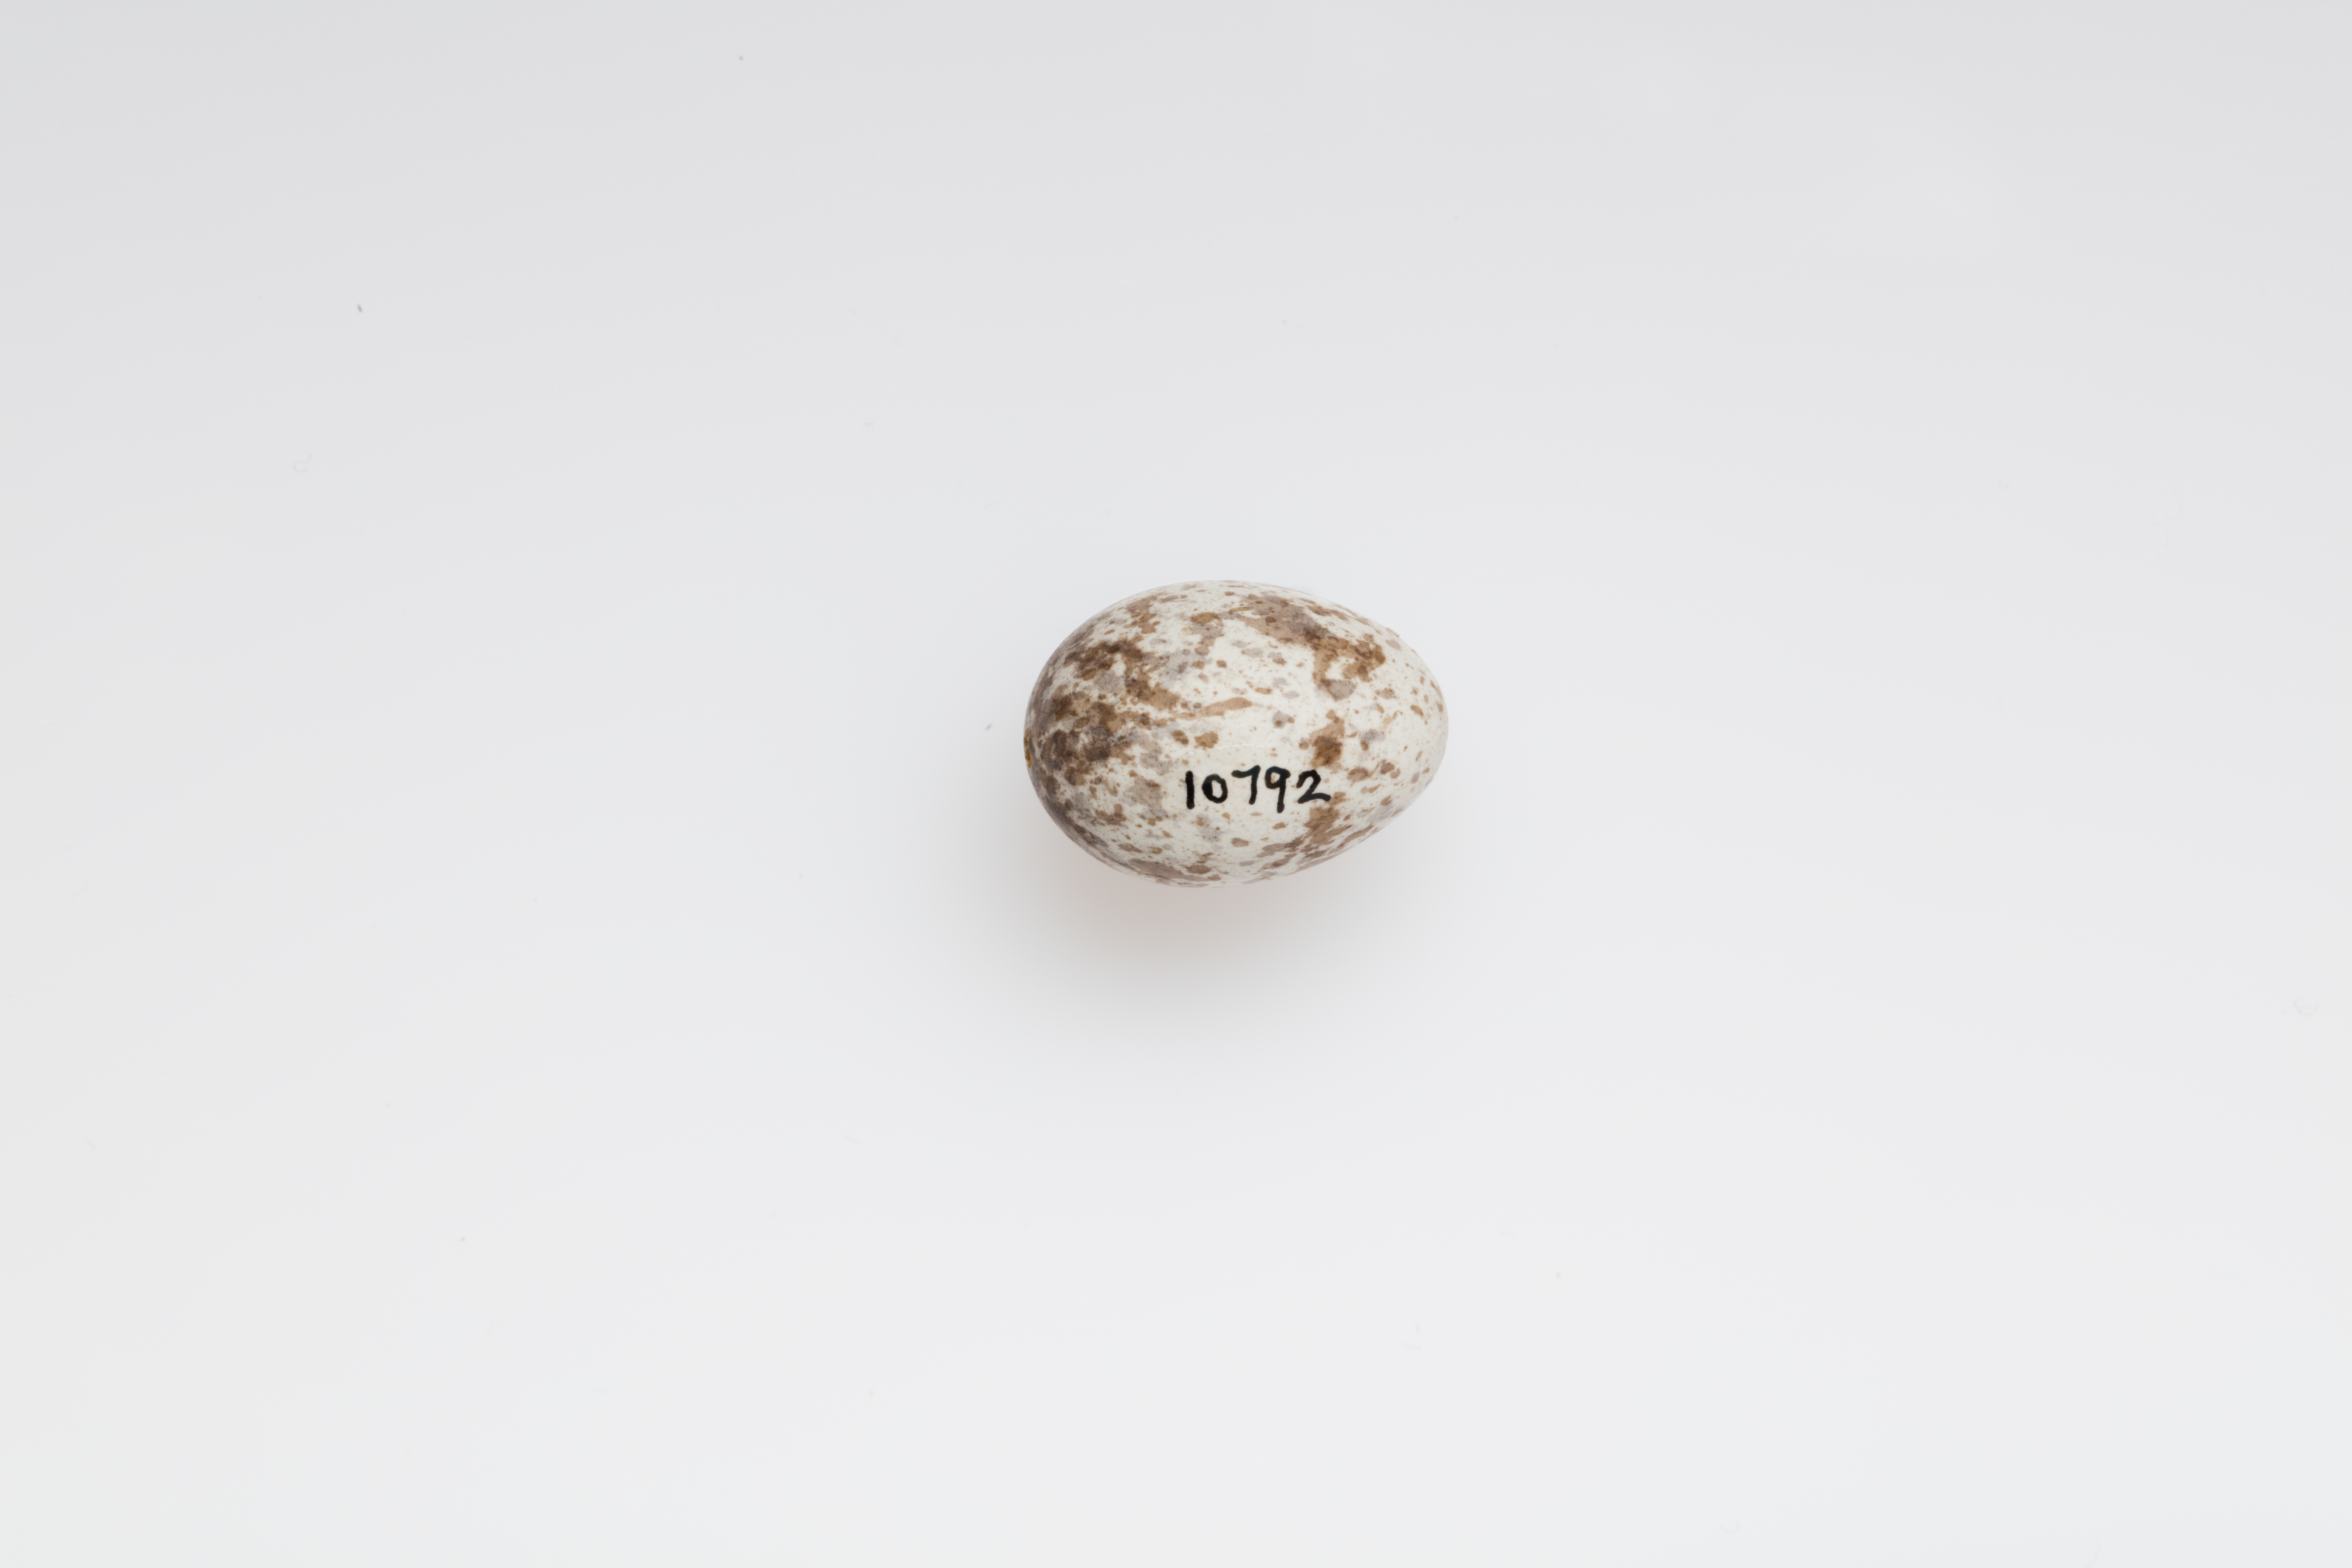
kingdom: Animalia
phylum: Chordata
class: Aves
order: Passeriformes
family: Passeridae
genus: Passer
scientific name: Passer montanus
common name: Eurasian tree sparrow
